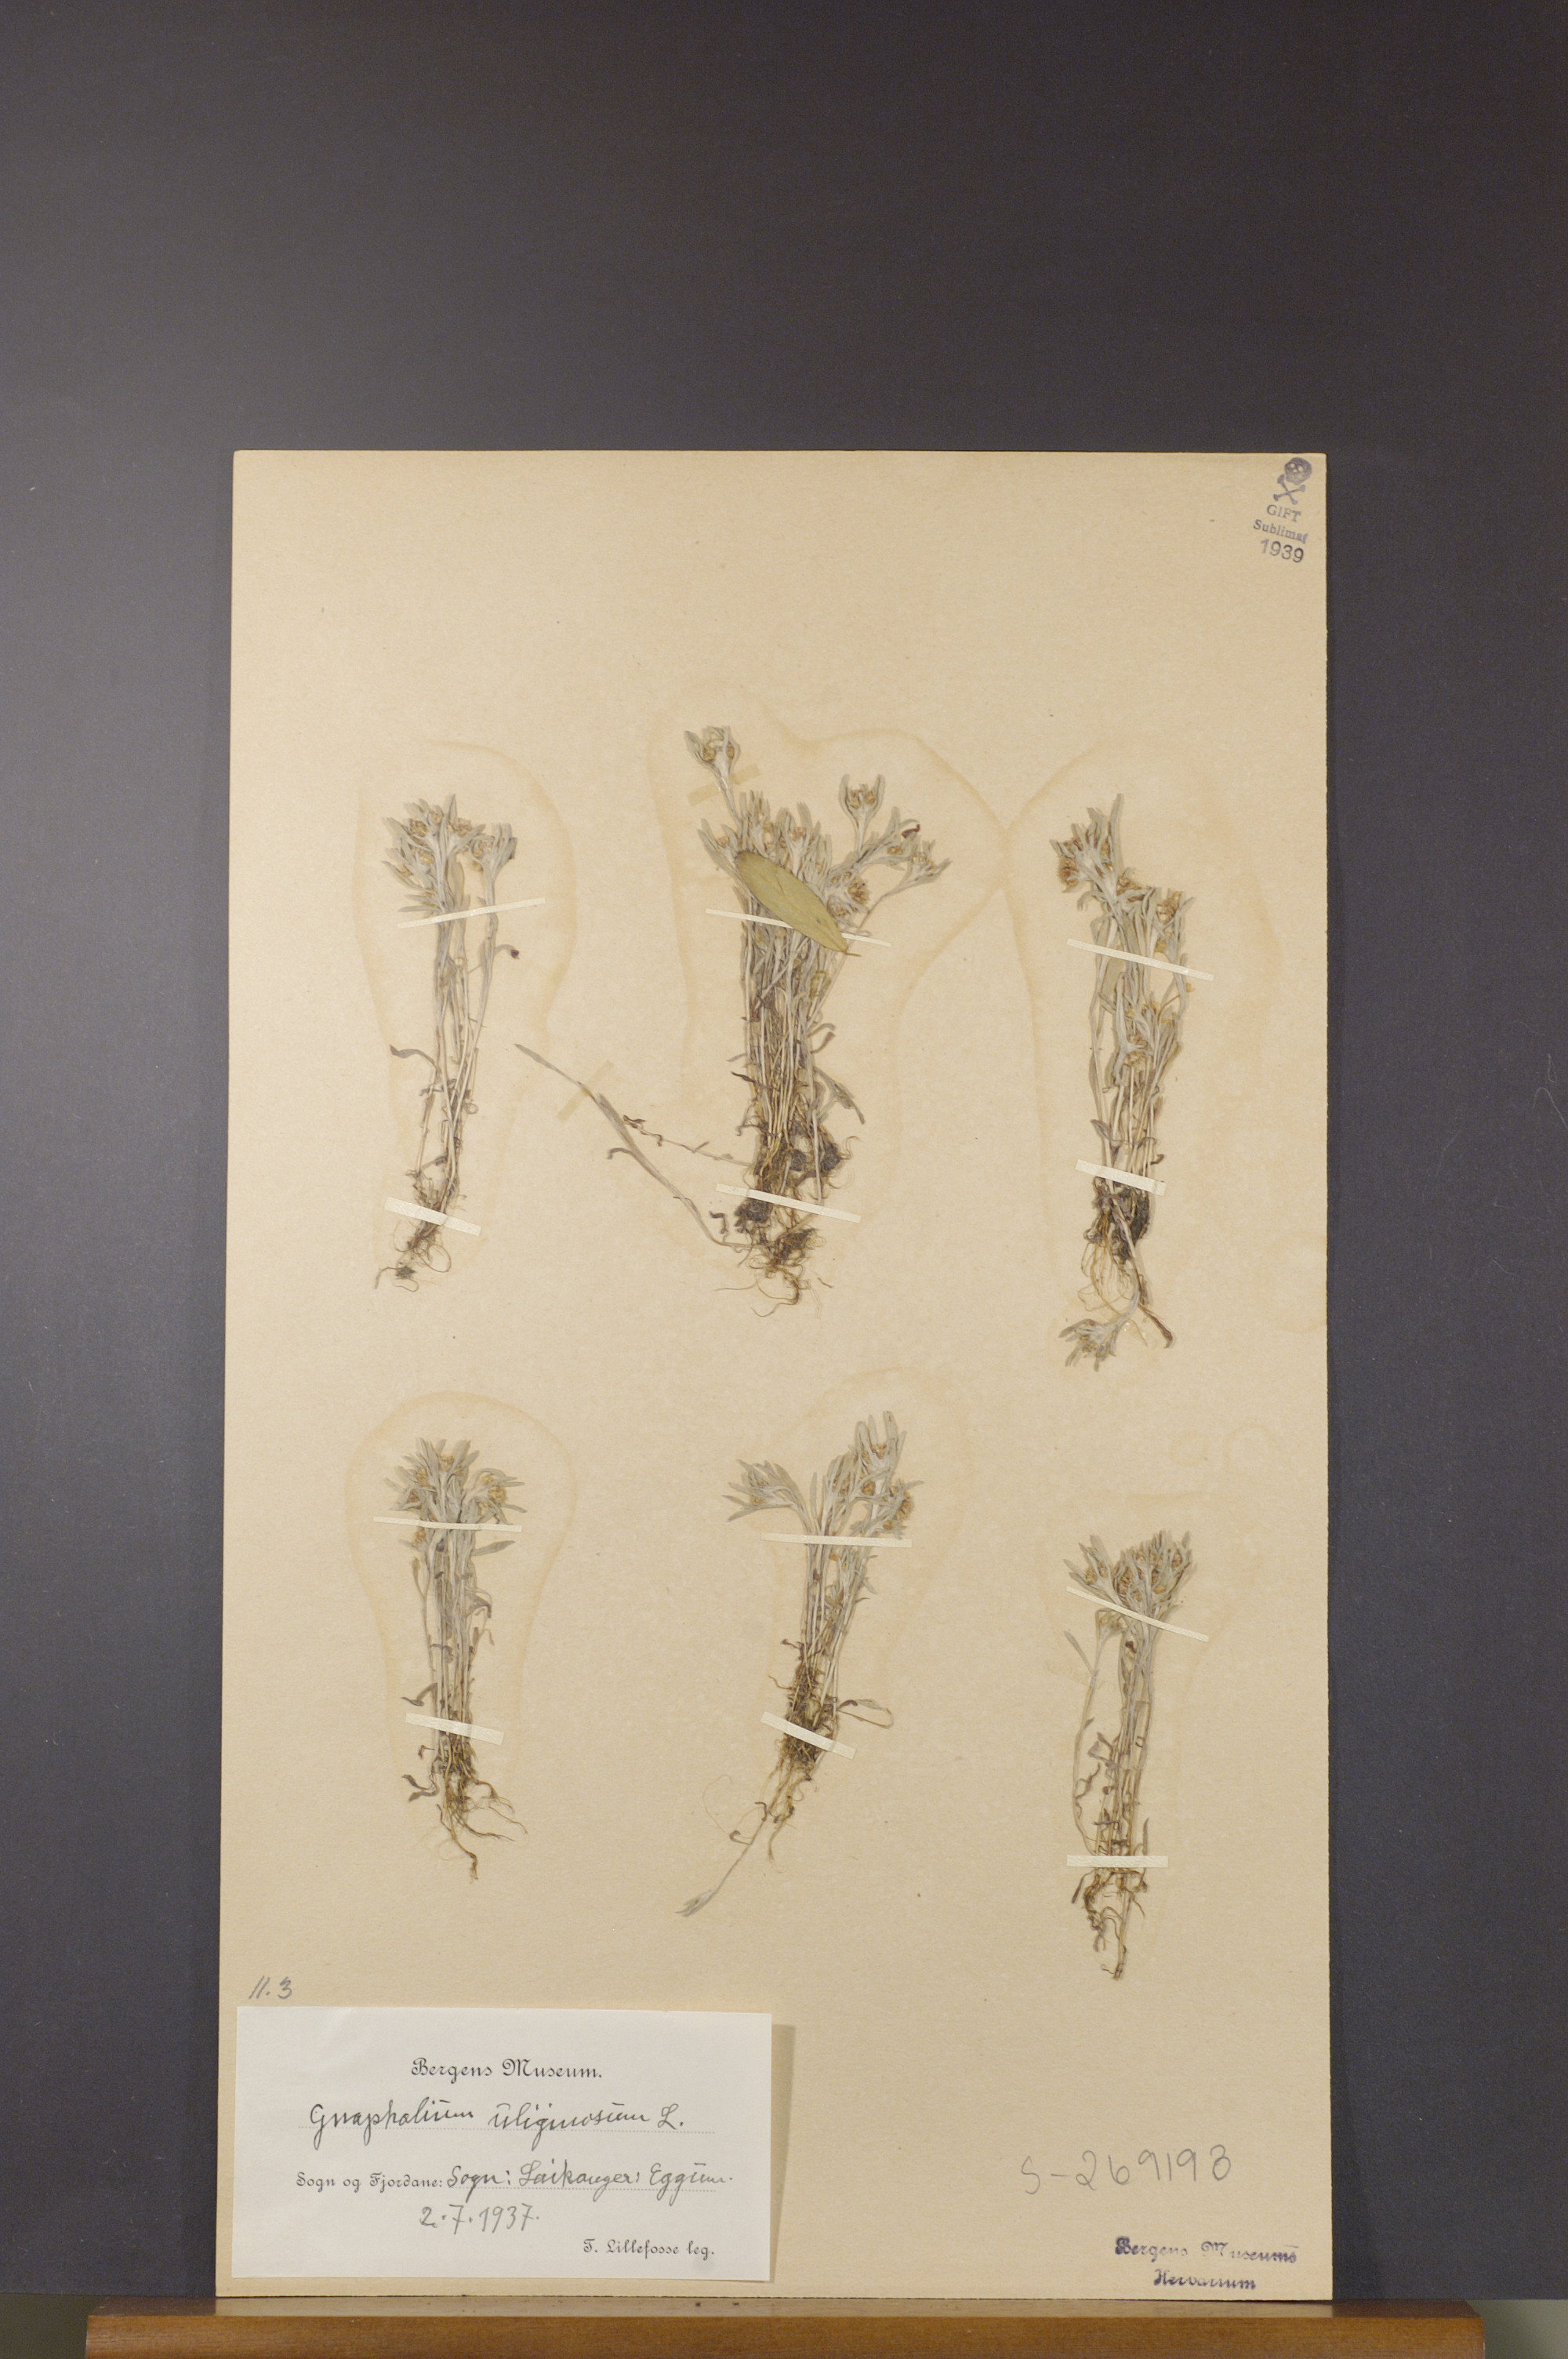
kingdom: Plantae
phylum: Tracheophyta
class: Magnoliopsida
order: Asterales
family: Asteraceae
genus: Gnaphalium
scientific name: Gnaphalium uliginosum
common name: Marsh cudweed
